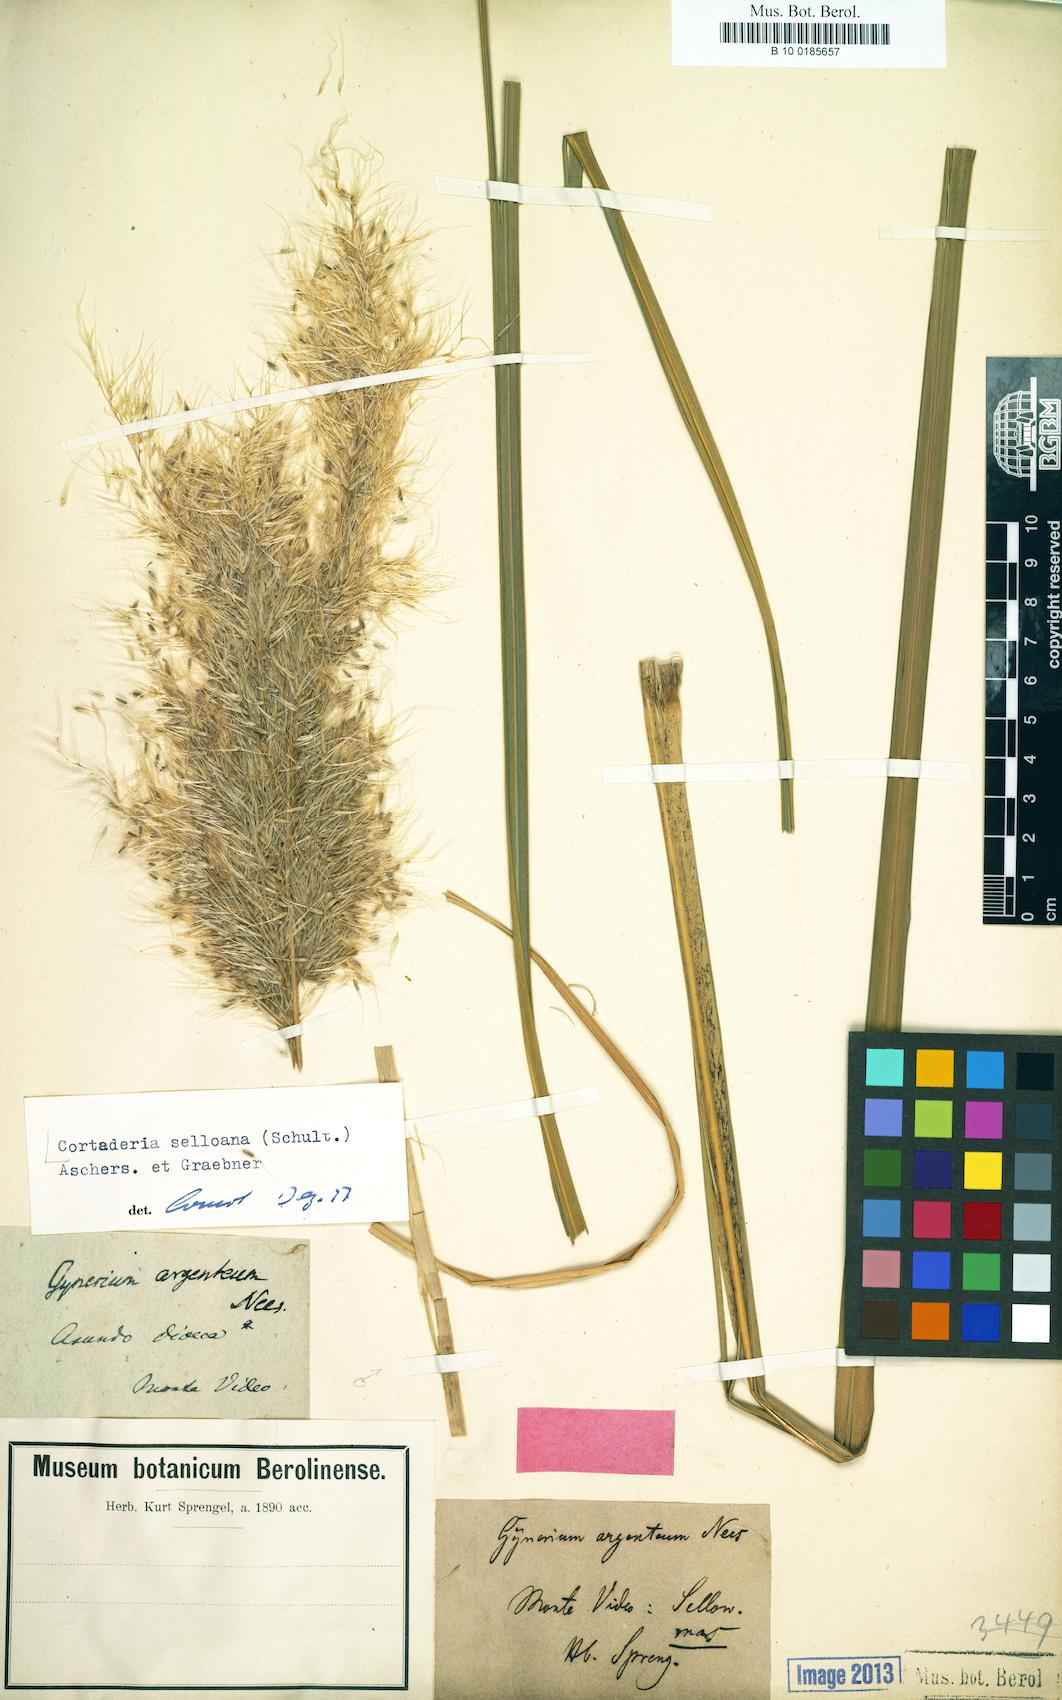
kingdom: Plantae
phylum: Tracheophyta
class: Liliopsida
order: Poales
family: Poaceae
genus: Cortaderia
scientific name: Cortaderia selloana
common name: Uruguayan pampas grass
